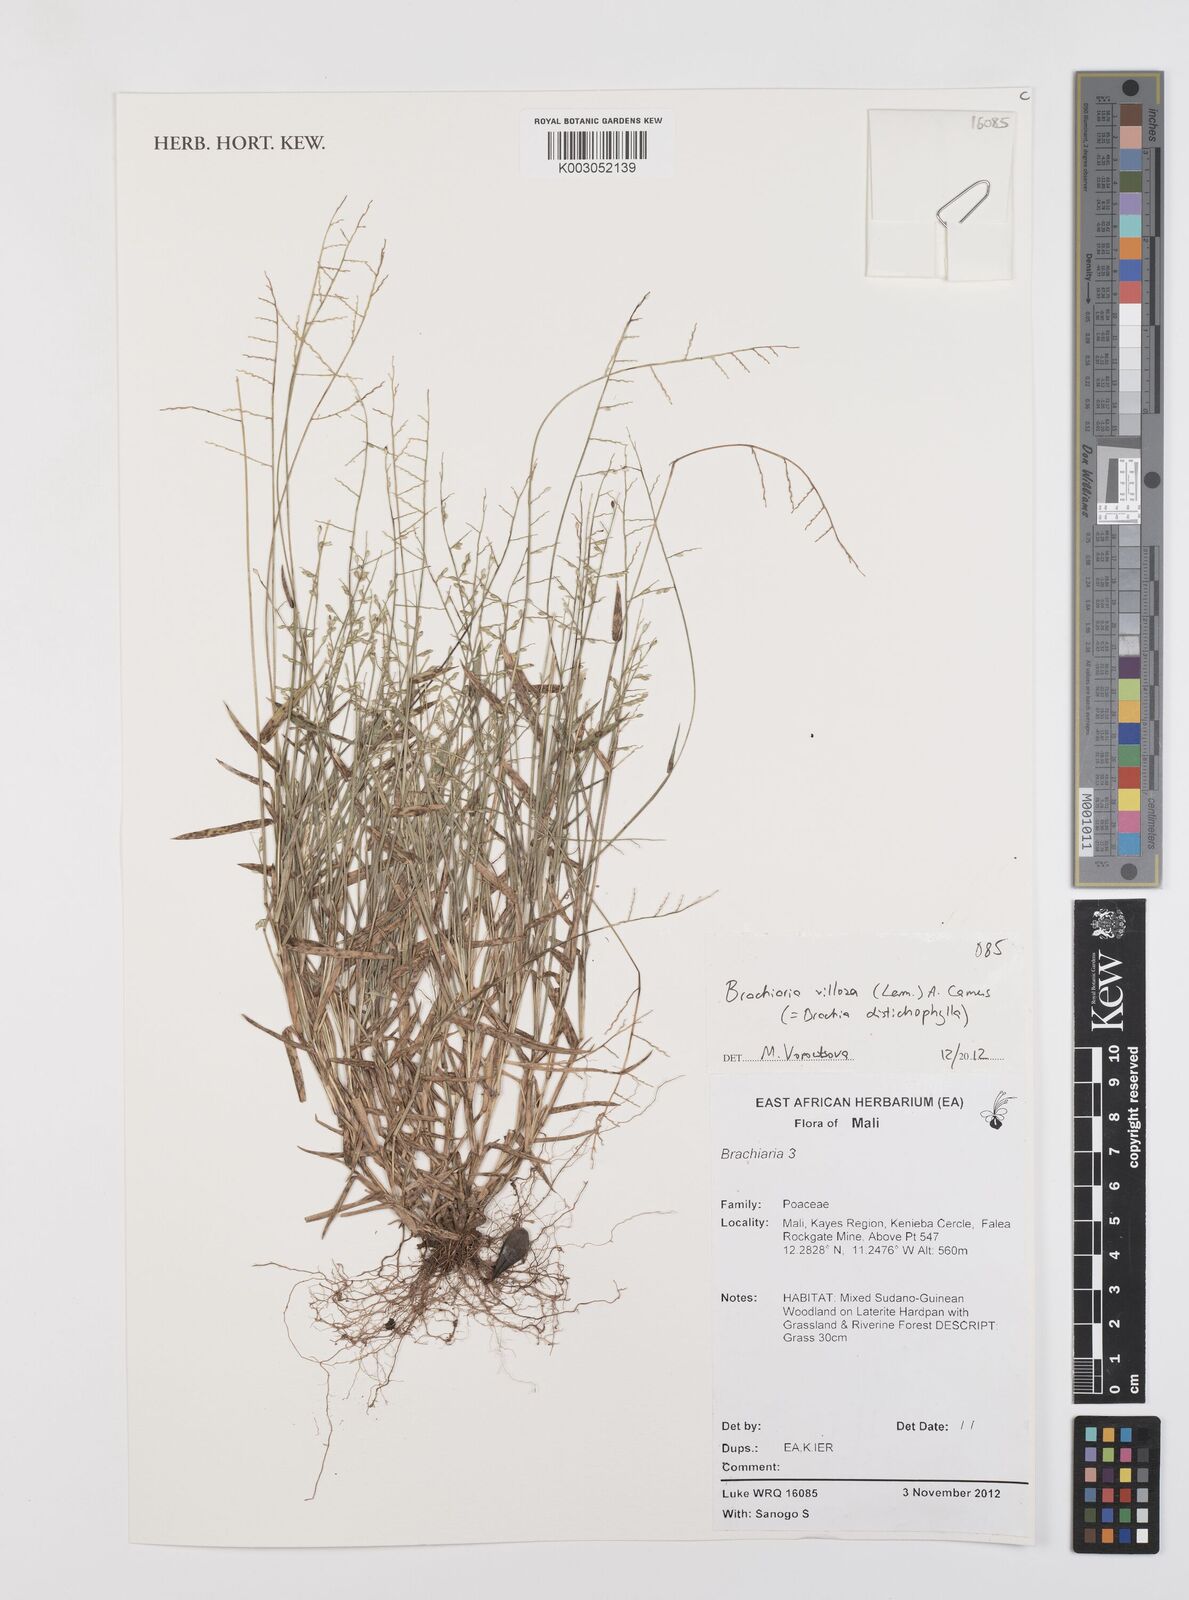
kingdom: Plantae
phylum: Tracheophyta
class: Liliopsida
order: Poales
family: Poaceae
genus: Urochloa
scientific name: Urochloa villosa
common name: Hairy signalgrass
